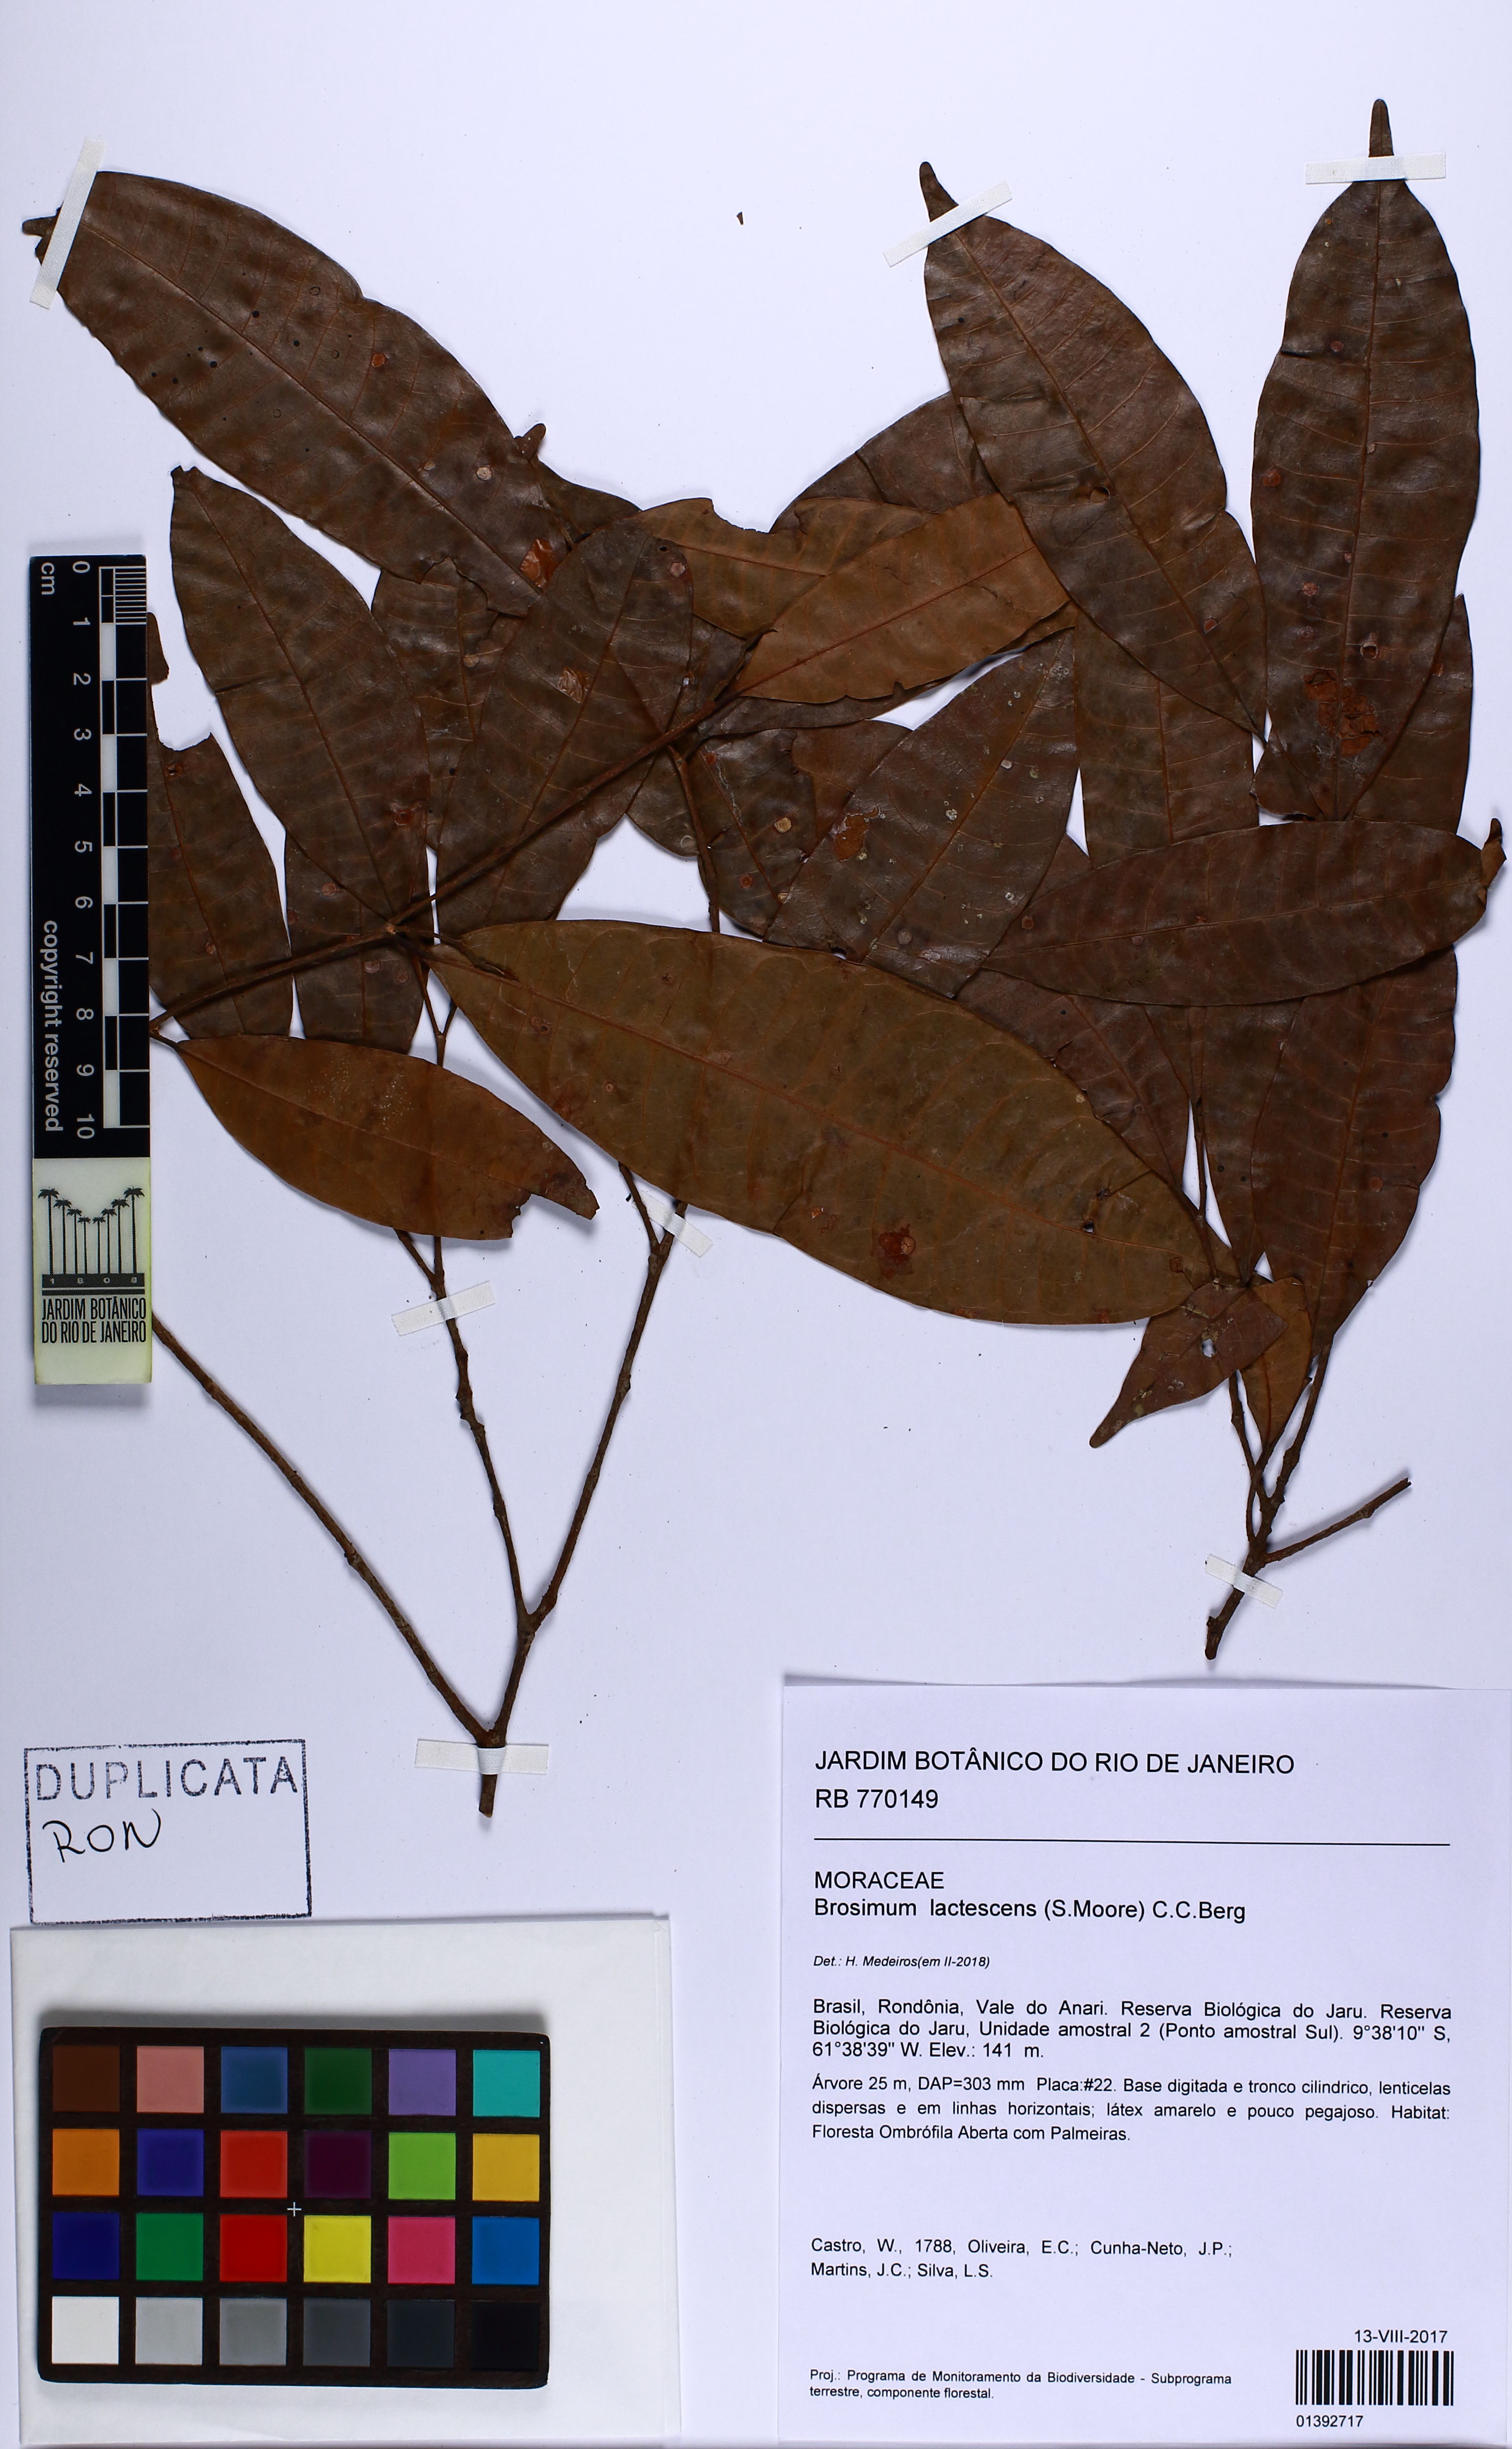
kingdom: Plantae
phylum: Tracheophyta
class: Magnoliopsida
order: Rosales
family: Moraceae
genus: Brosimum
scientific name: Brosimum lactescens
